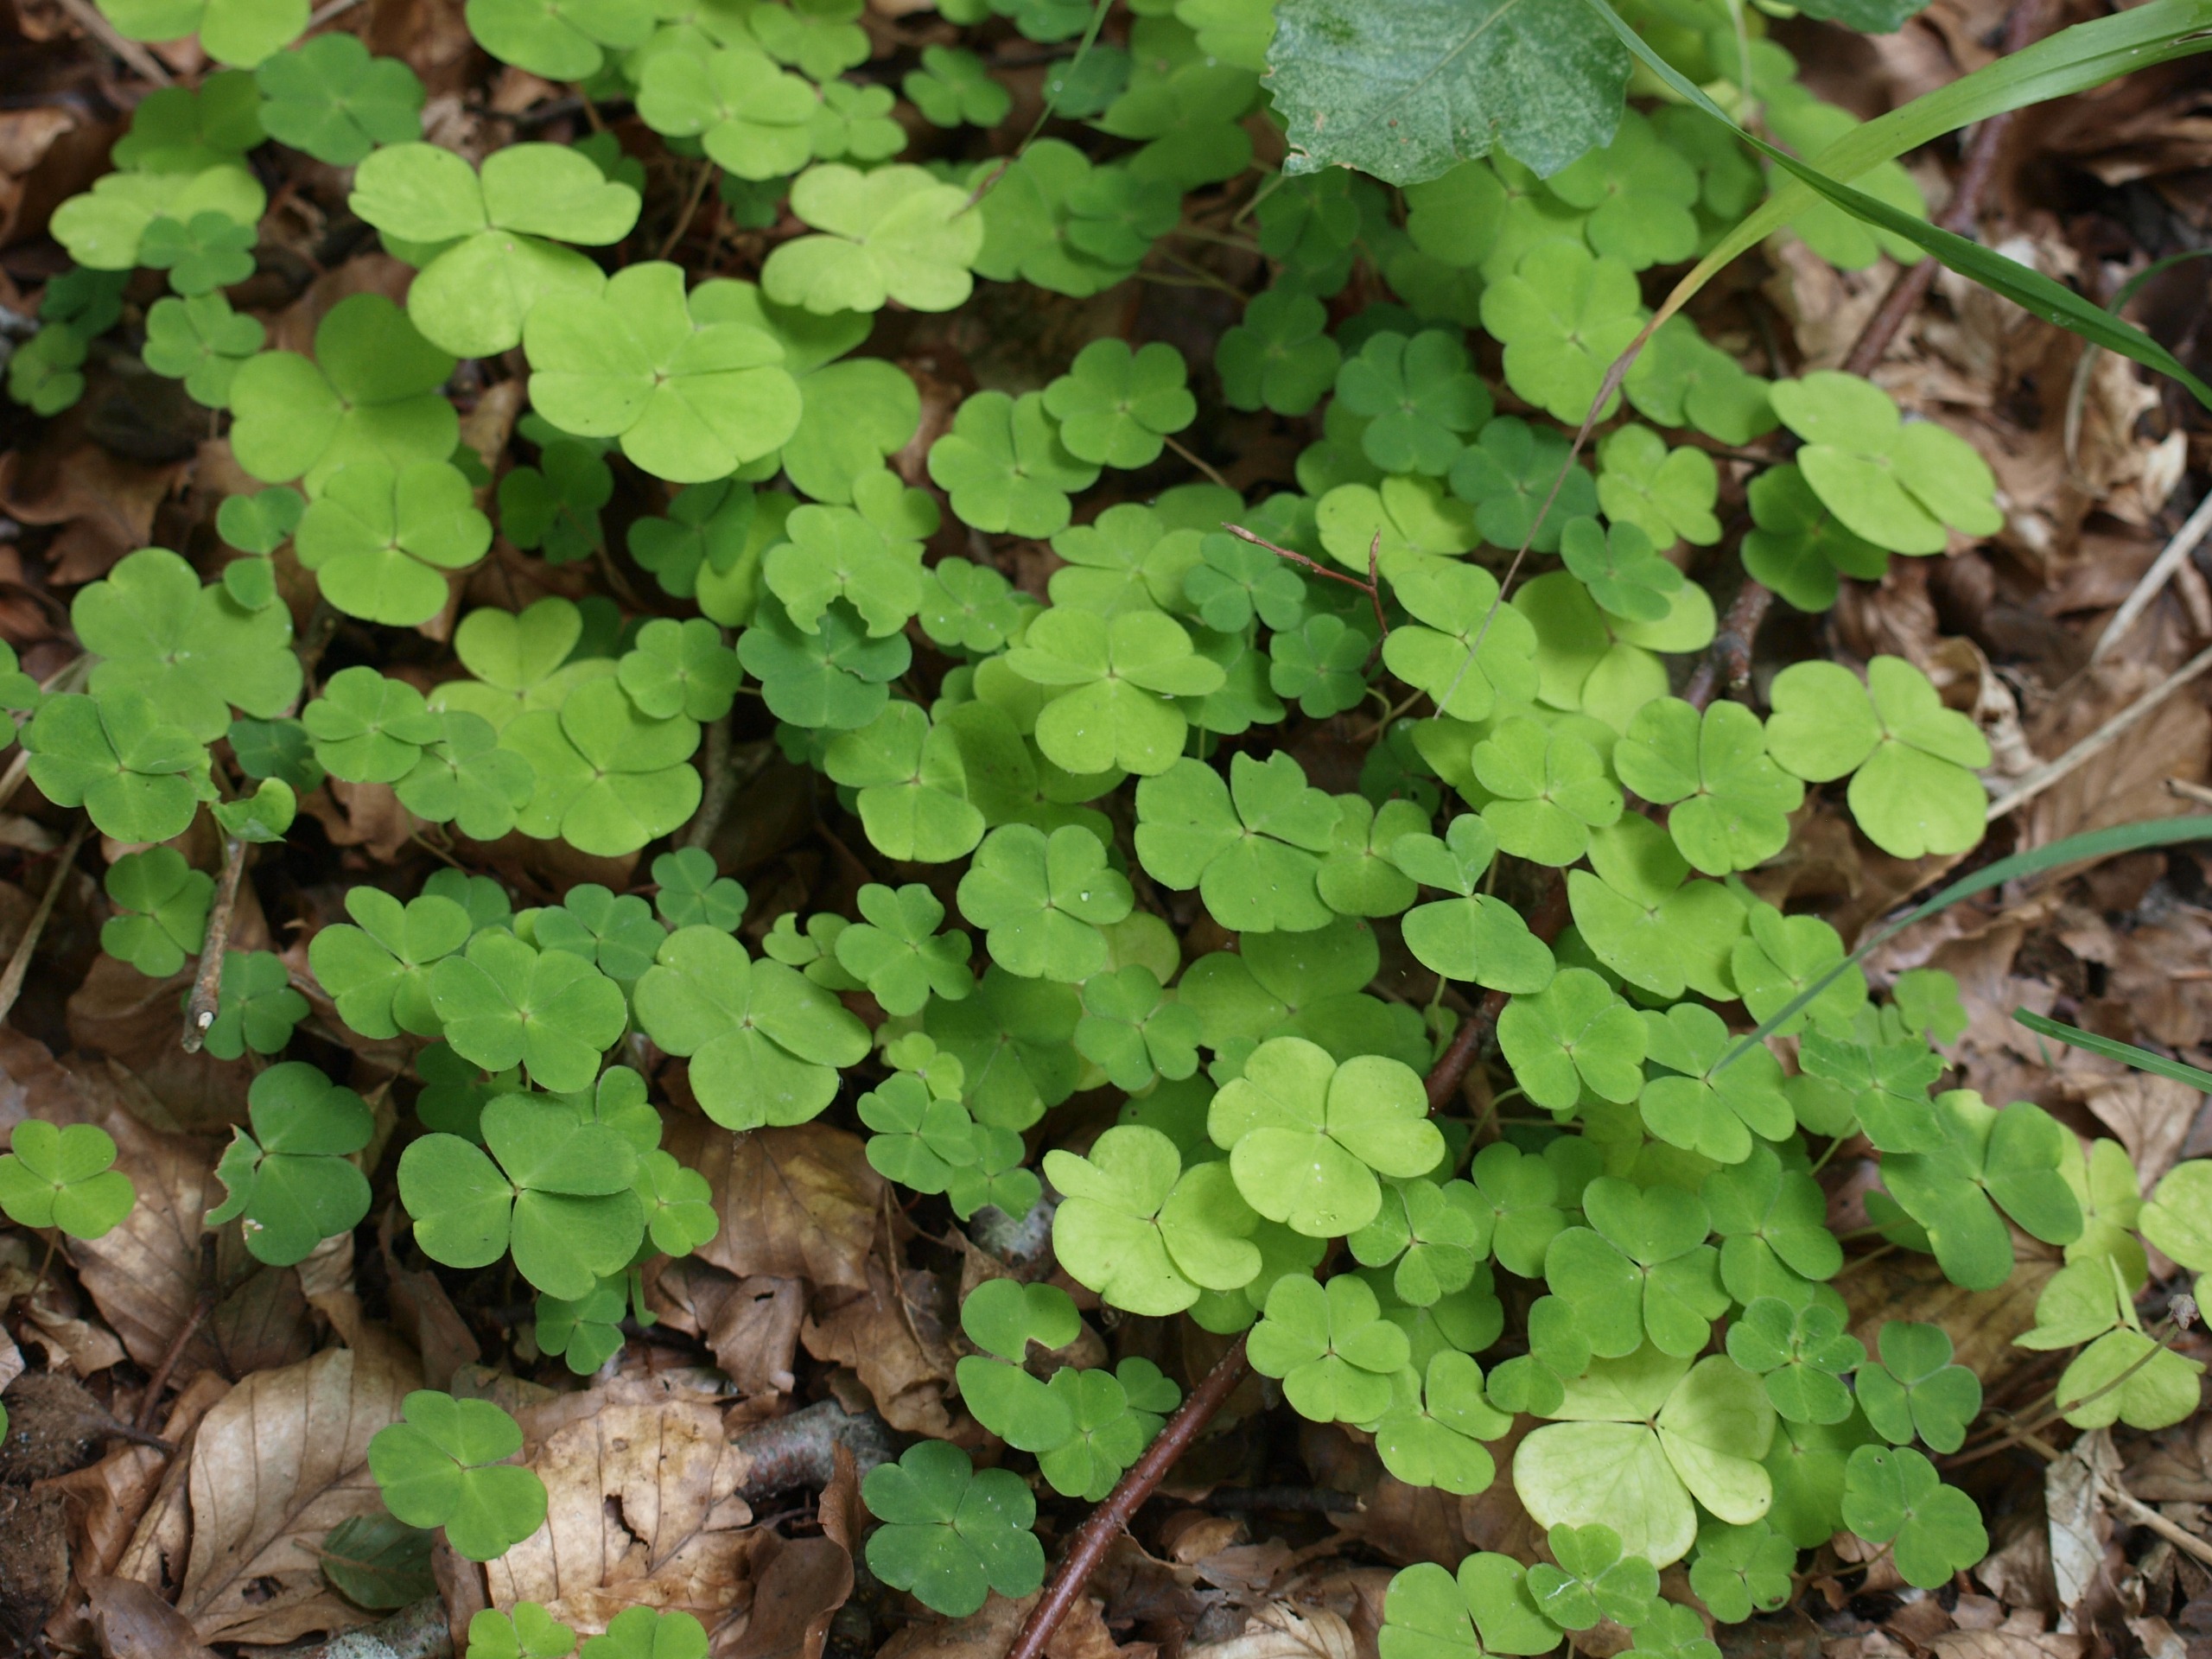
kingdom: Plantae
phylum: Tracheophyta
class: Magnoliopsida
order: Oxalidales
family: Oxalidaceae
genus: Oxalis
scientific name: Oxalis acetosella
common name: Skovsyre
